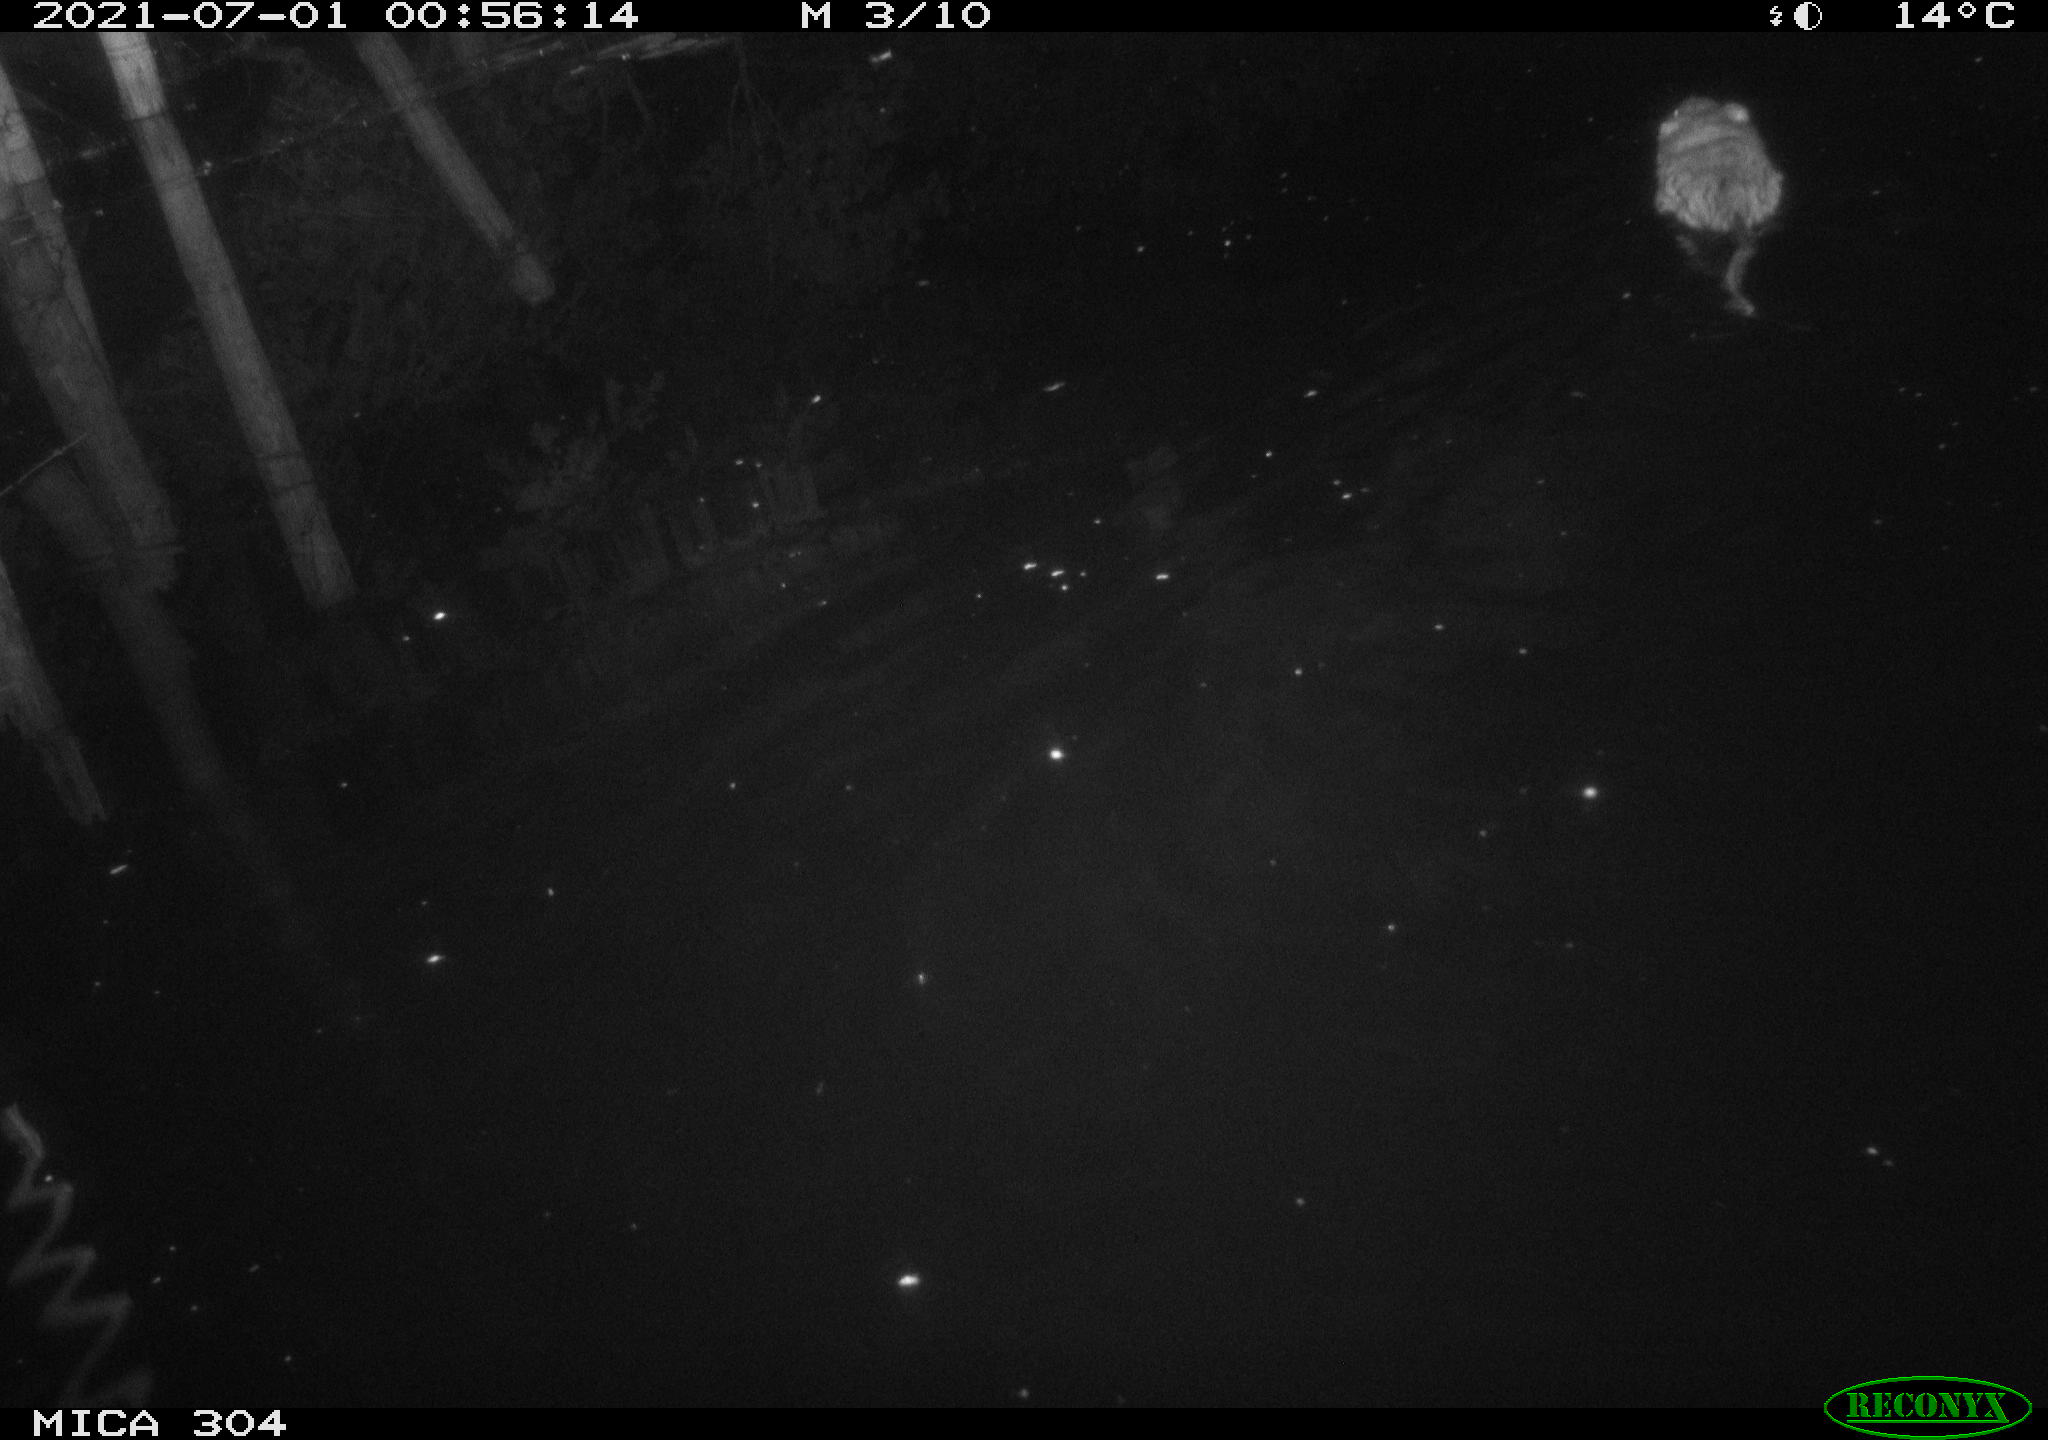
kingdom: Animalia
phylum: Chordata
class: Mammalia
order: Rodentia
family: Cricetidae
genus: Ondatra
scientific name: Ondatra zibethicus
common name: Muskrat
